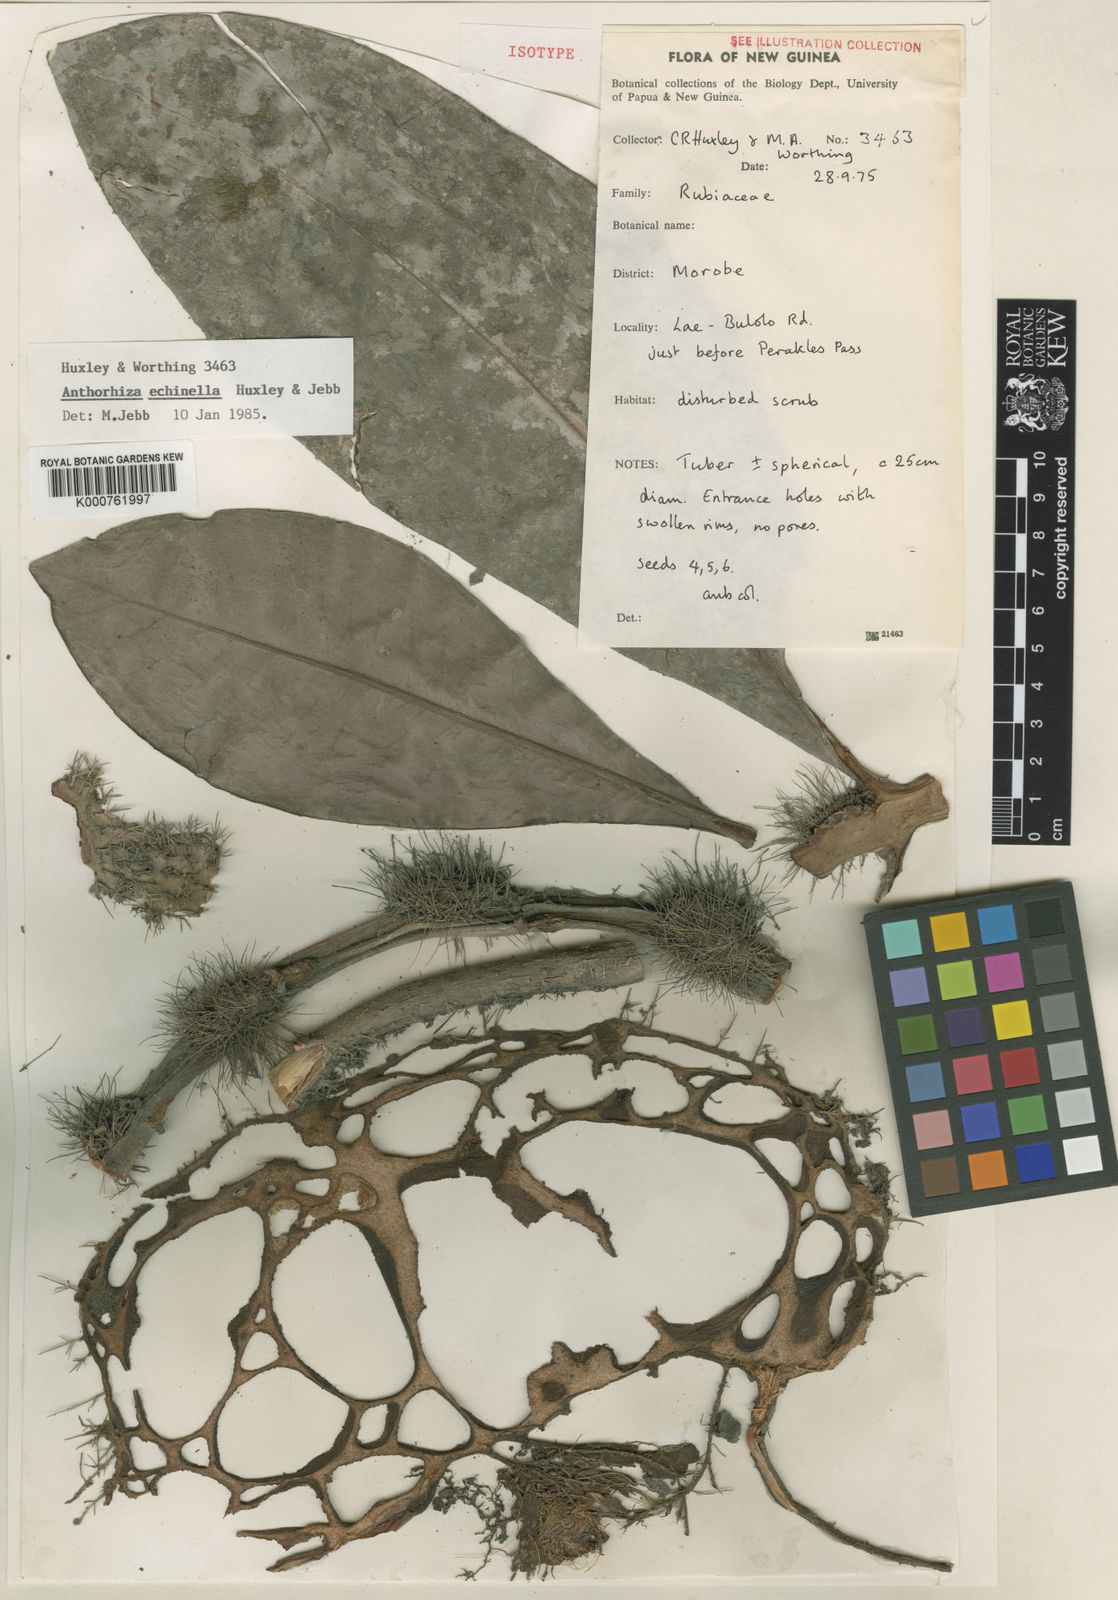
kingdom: Plantae
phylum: Tracheophyta
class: Magnoliopsida
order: Gentianales
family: Rubiaceae
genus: Anthorrhiza
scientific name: Anthorrhiza echinella
